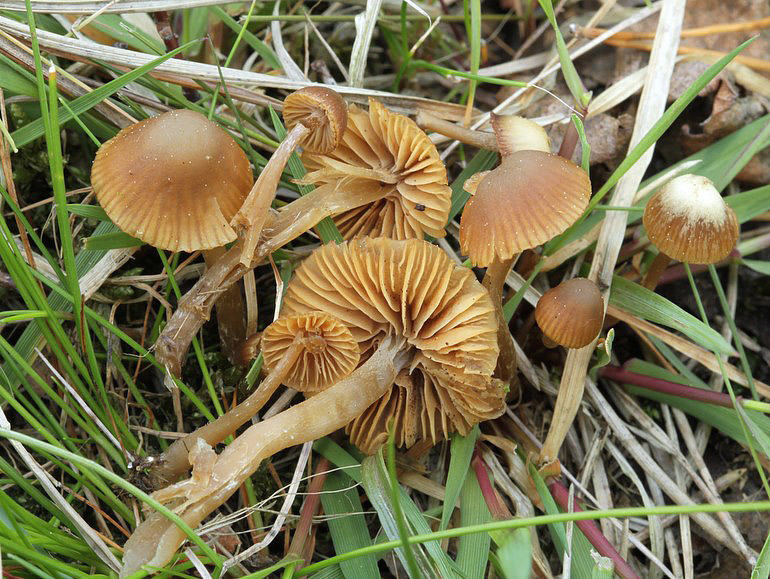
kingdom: Fungi
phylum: Basidiomycota
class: Agaricomycetes
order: Agaricales
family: Hymenogastraceae
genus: Galerina
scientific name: Galerina cephalotricha
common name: hede-hjelmhat
